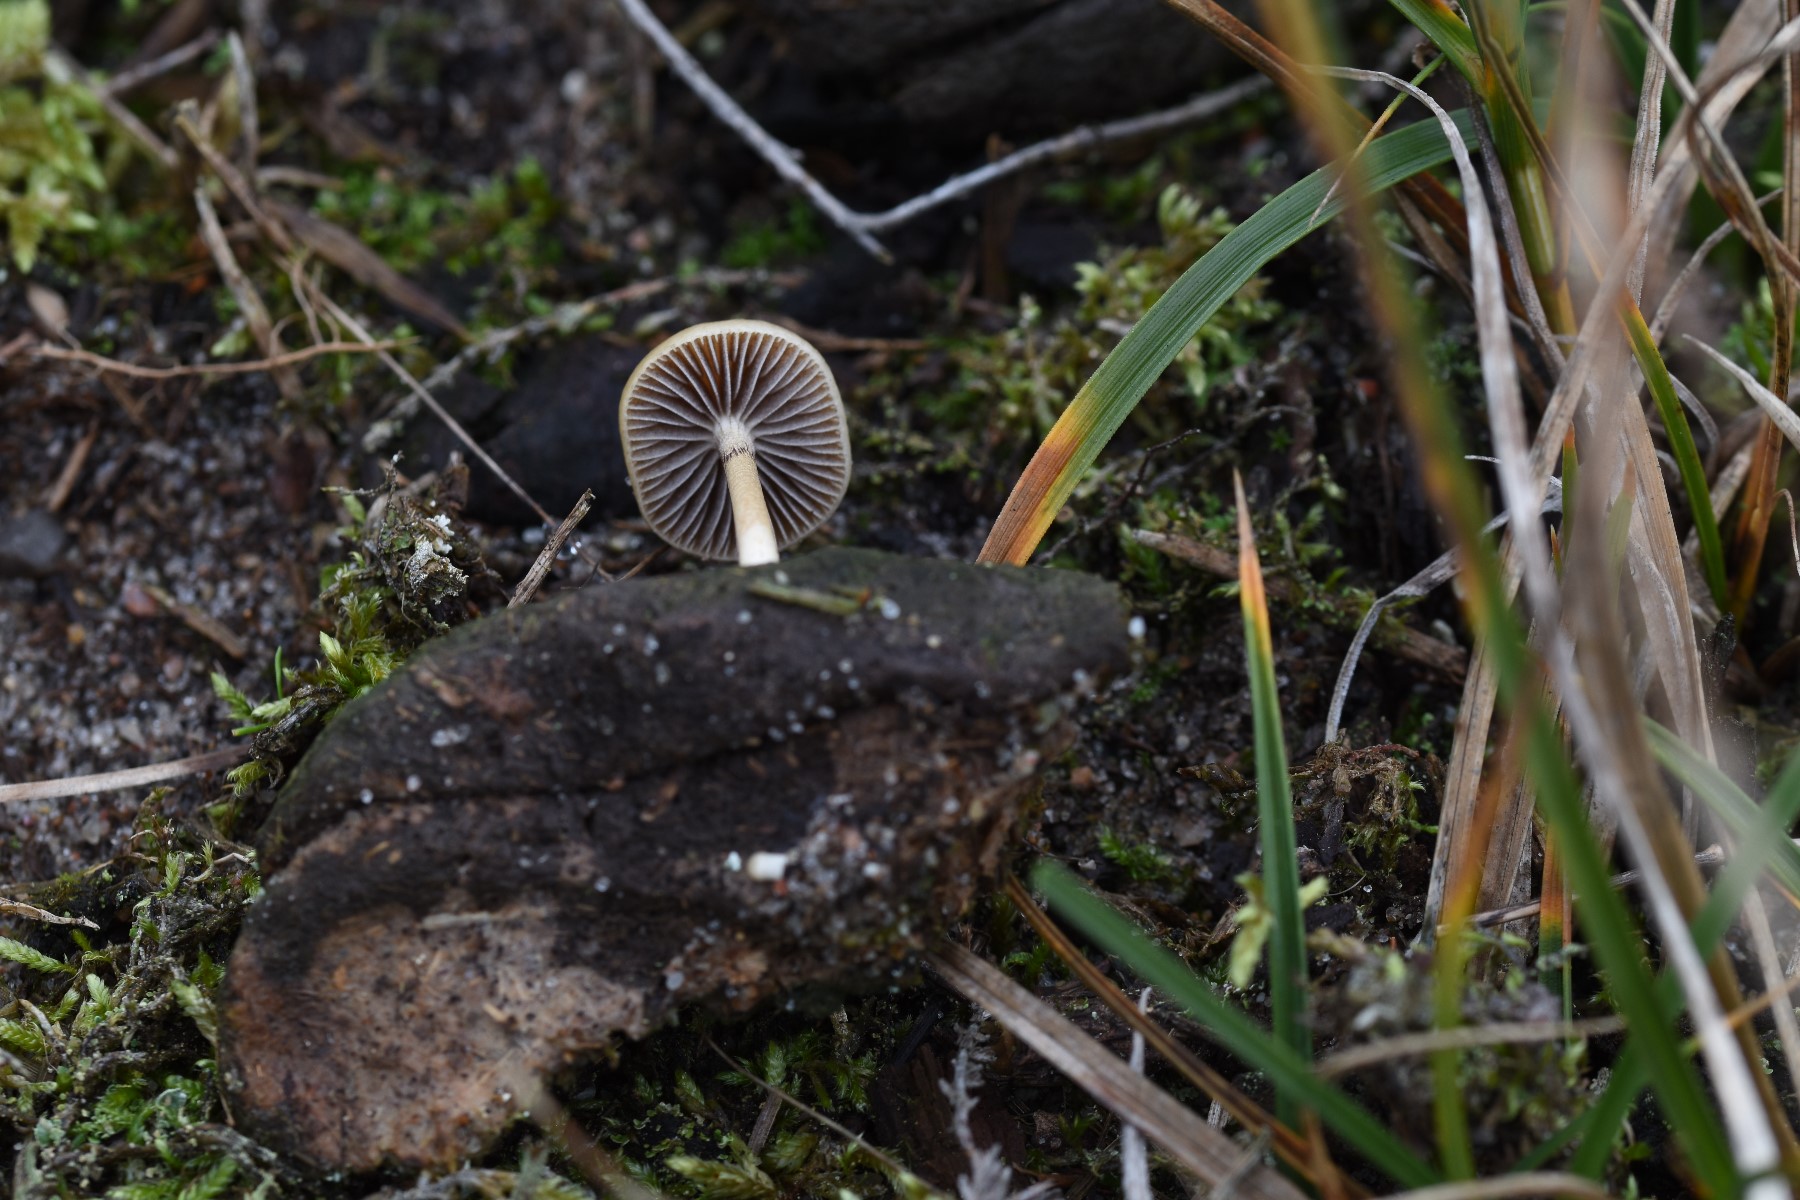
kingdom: Fungi
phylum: Basidiomycota
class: Agaricomycetes
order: Agaricales
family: Strophariaceae
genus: Protostropharia
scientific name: Protostropharia semiglobata
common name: halvkugleformet bredblad
